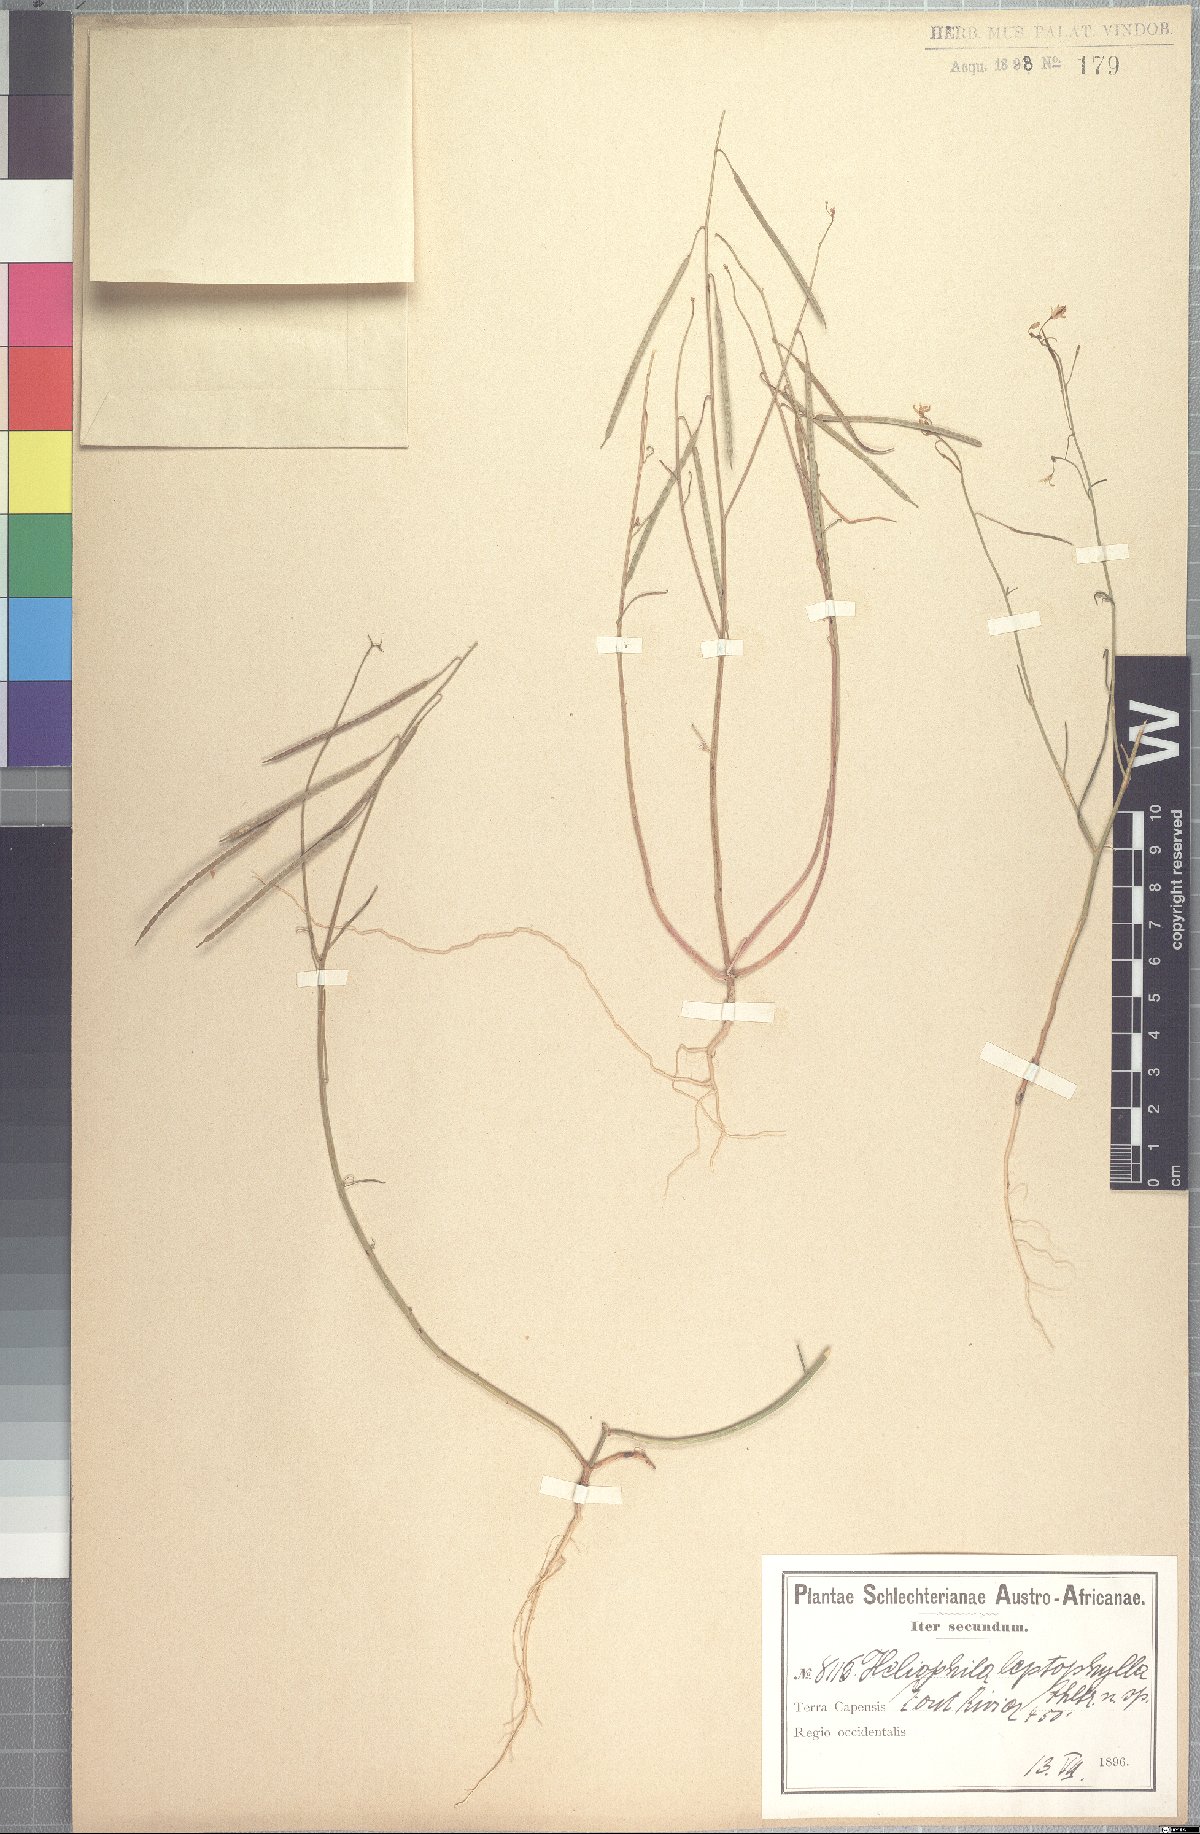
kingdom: Plantae
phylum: Tracheophyta
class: Magnoliopsida
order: Brassicales
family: Brassicaceae
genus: Heliophila
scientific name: Heliophila leptophylla
